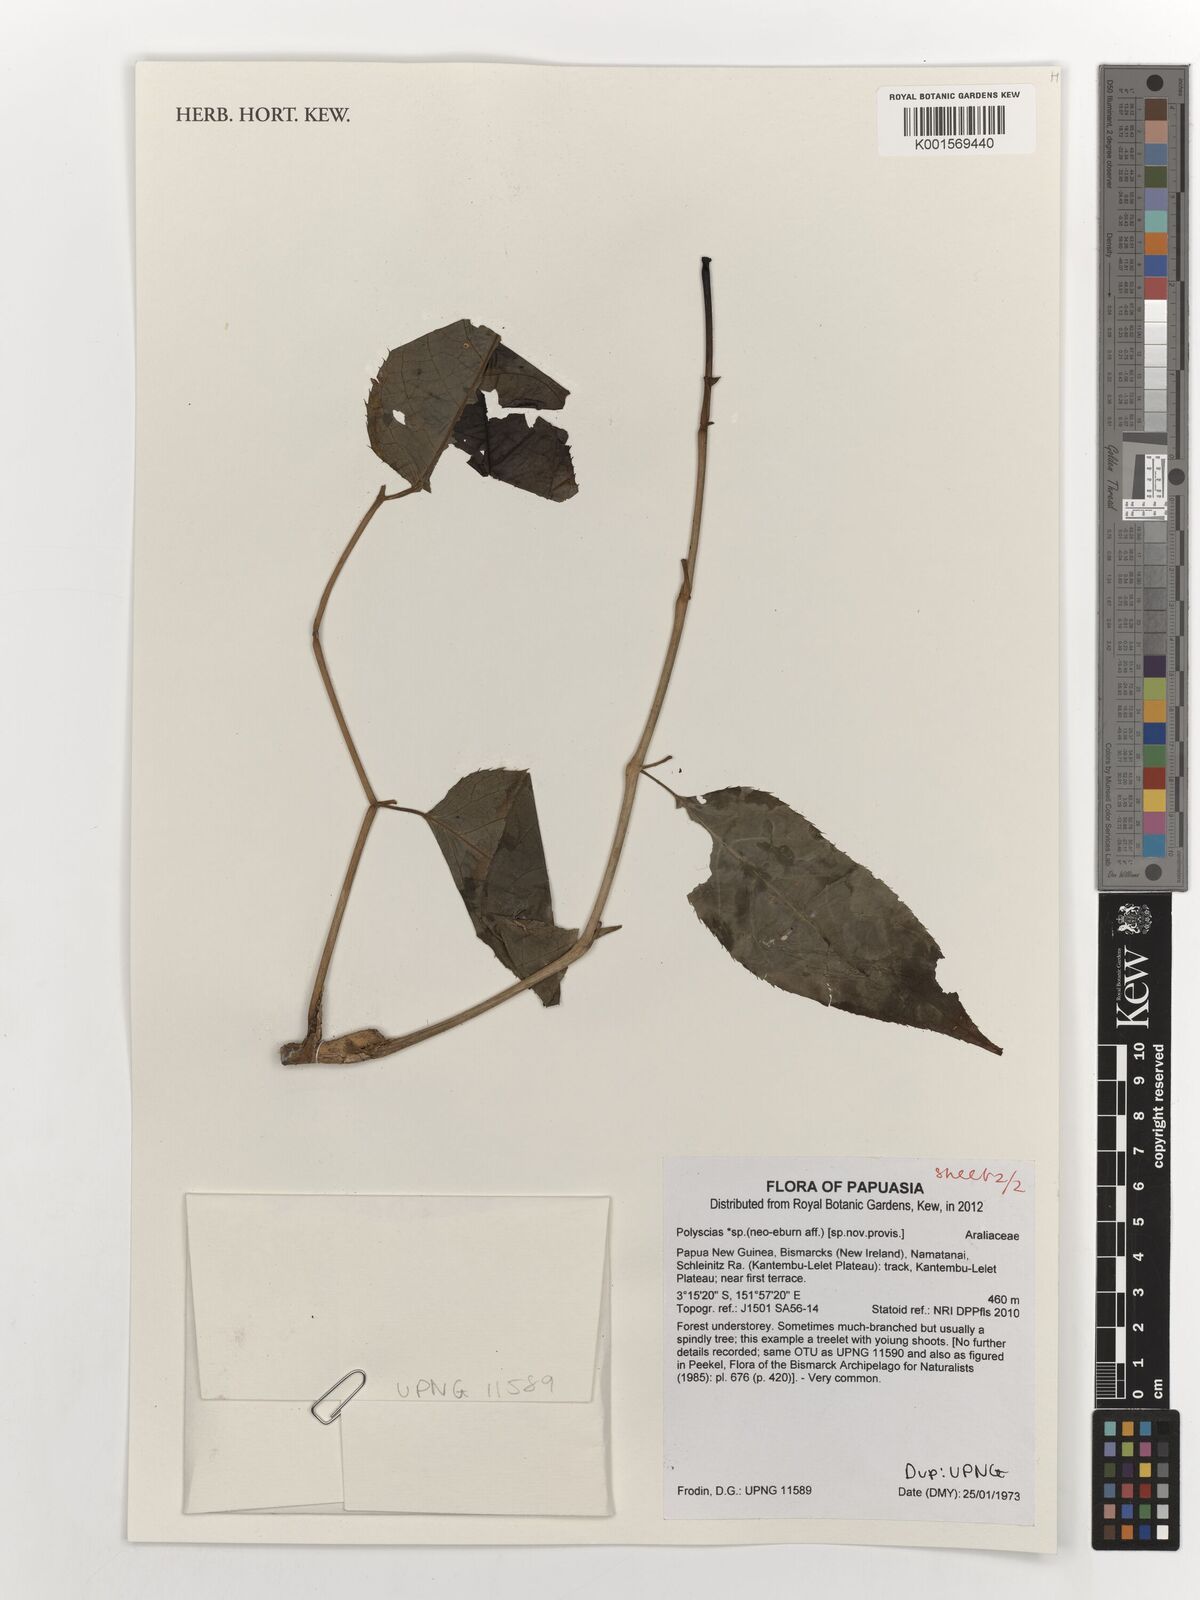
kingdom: Plantae
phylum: Tracheophyta
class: Magnoliopsida
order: Apiales
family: Araliaceae
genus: Polyscias
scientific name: Polyscias
